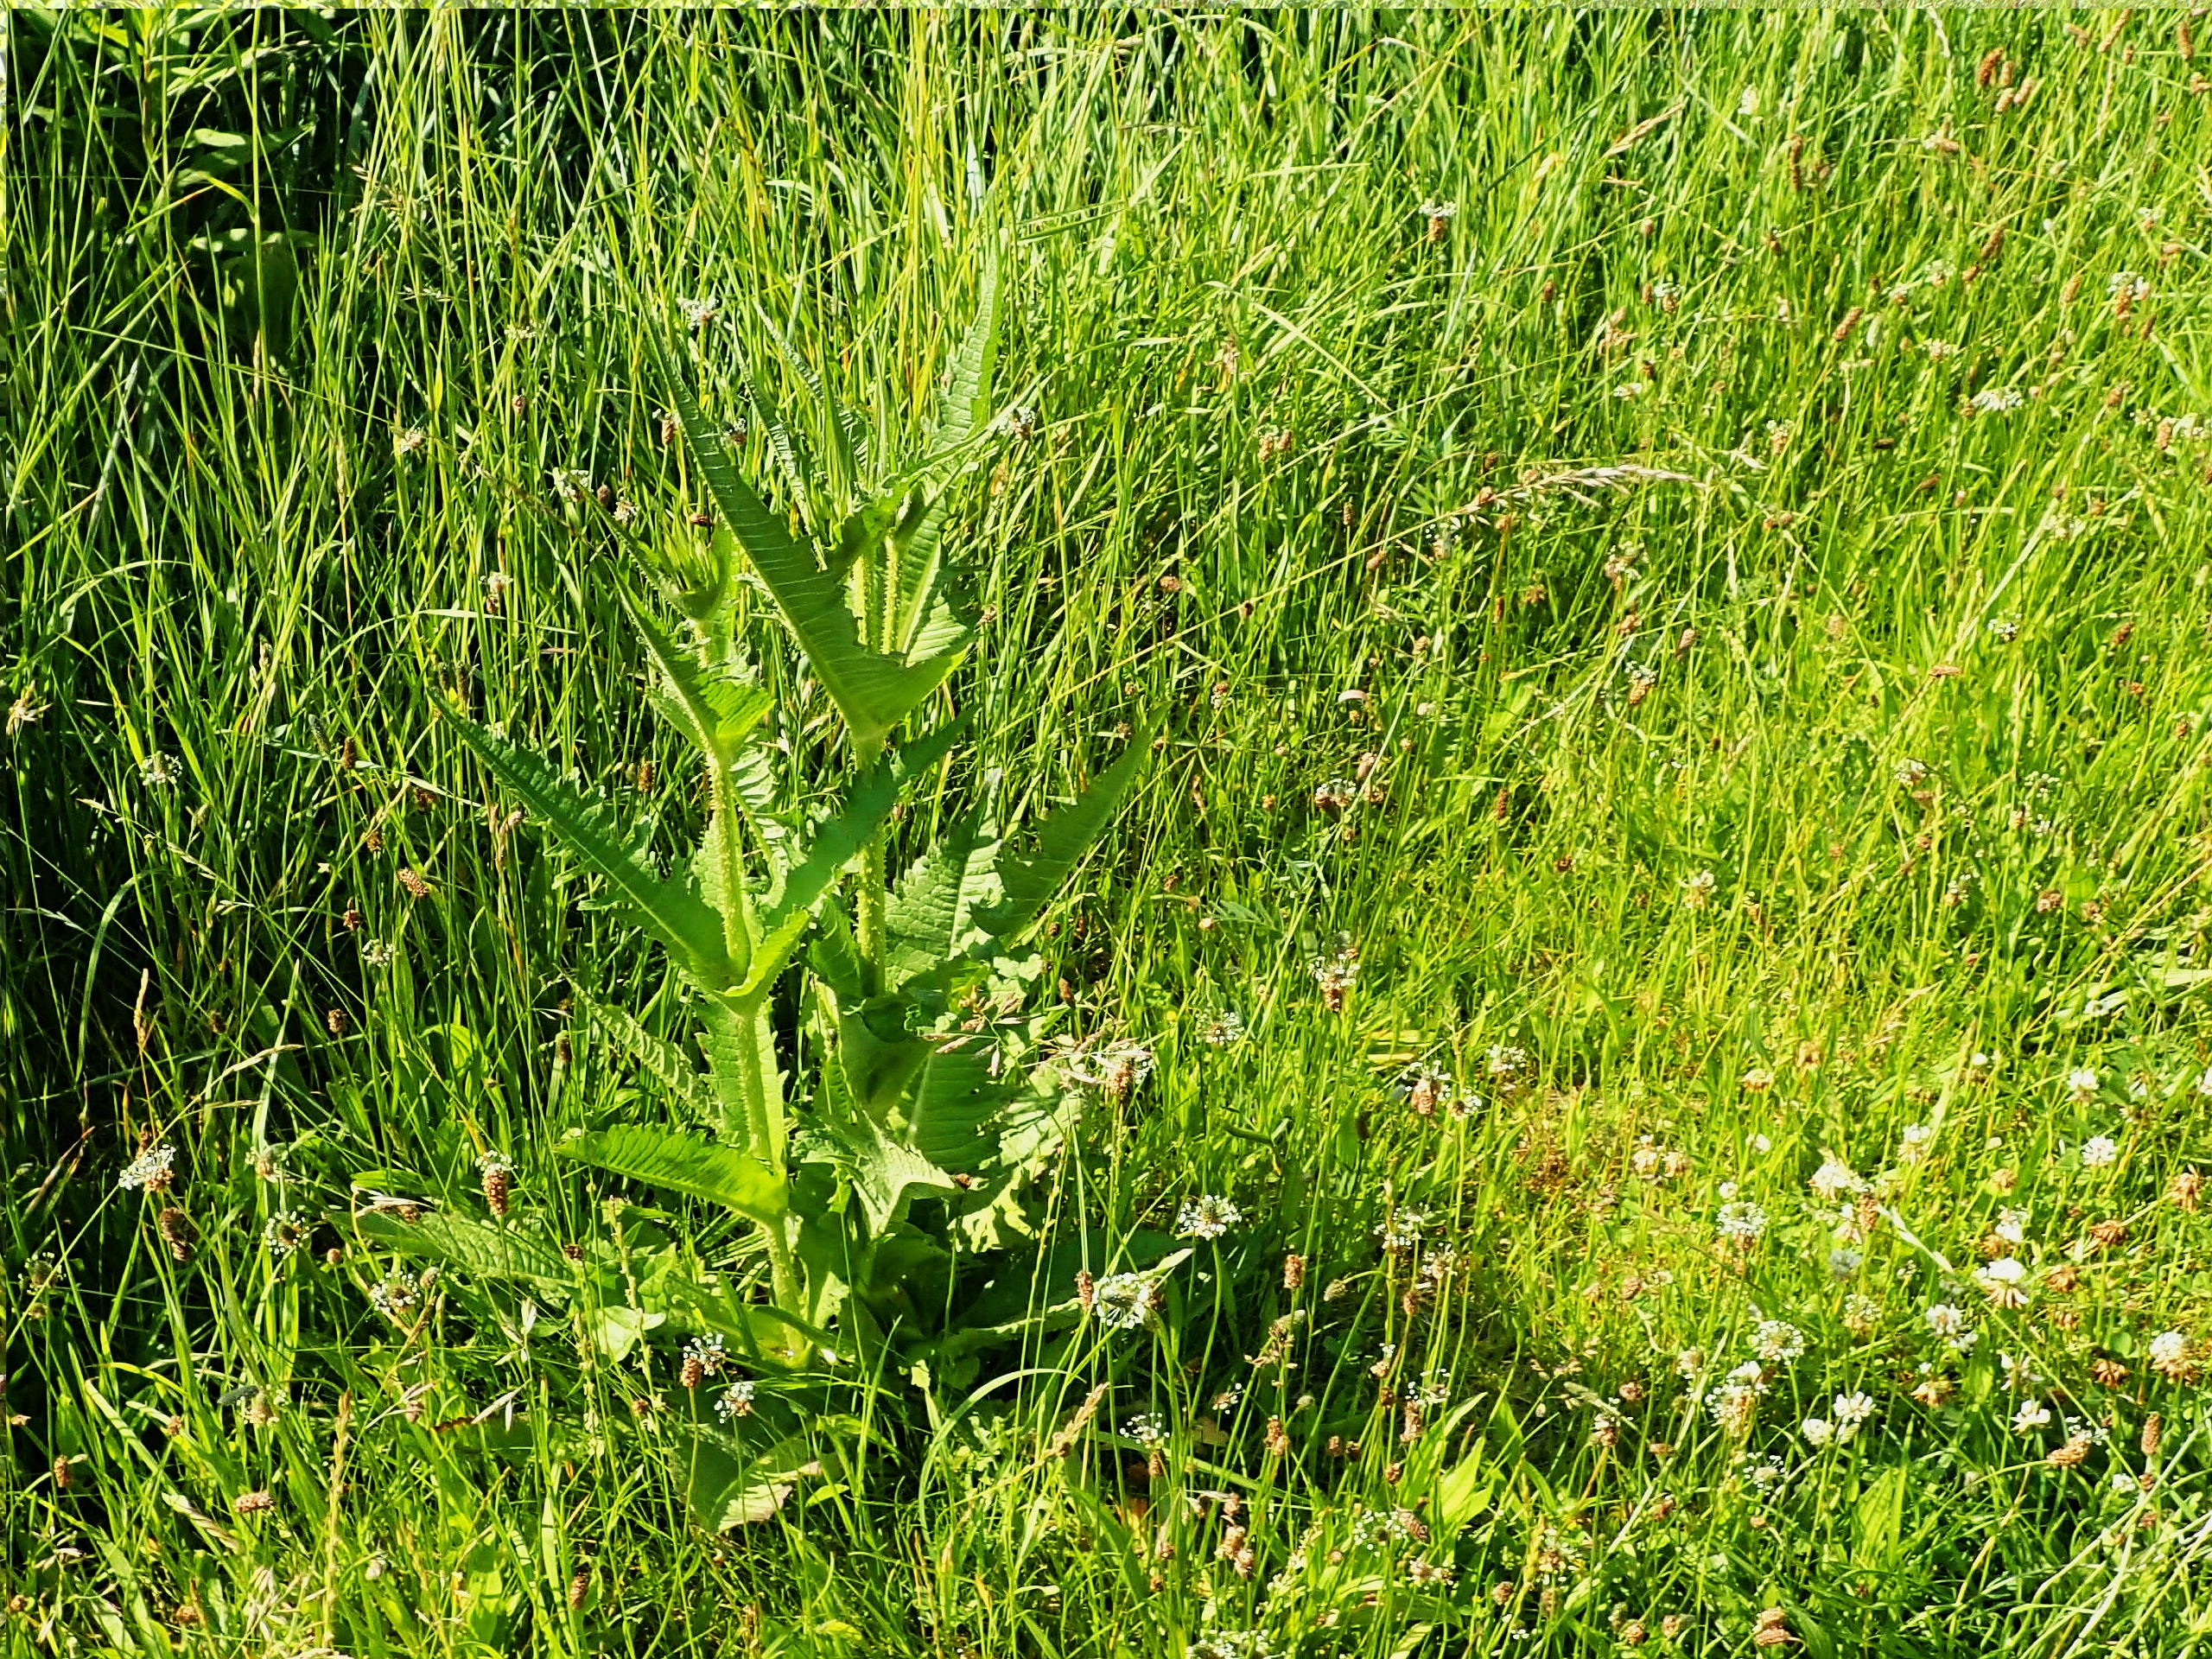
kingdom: Plantae
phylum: Tracheophyta
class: Magnoliopsida
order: Dipsacales
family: Caprifoliaceae
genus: Dipsacus
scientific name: Dipsacus laciniatus
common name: Fliget kartebolle
